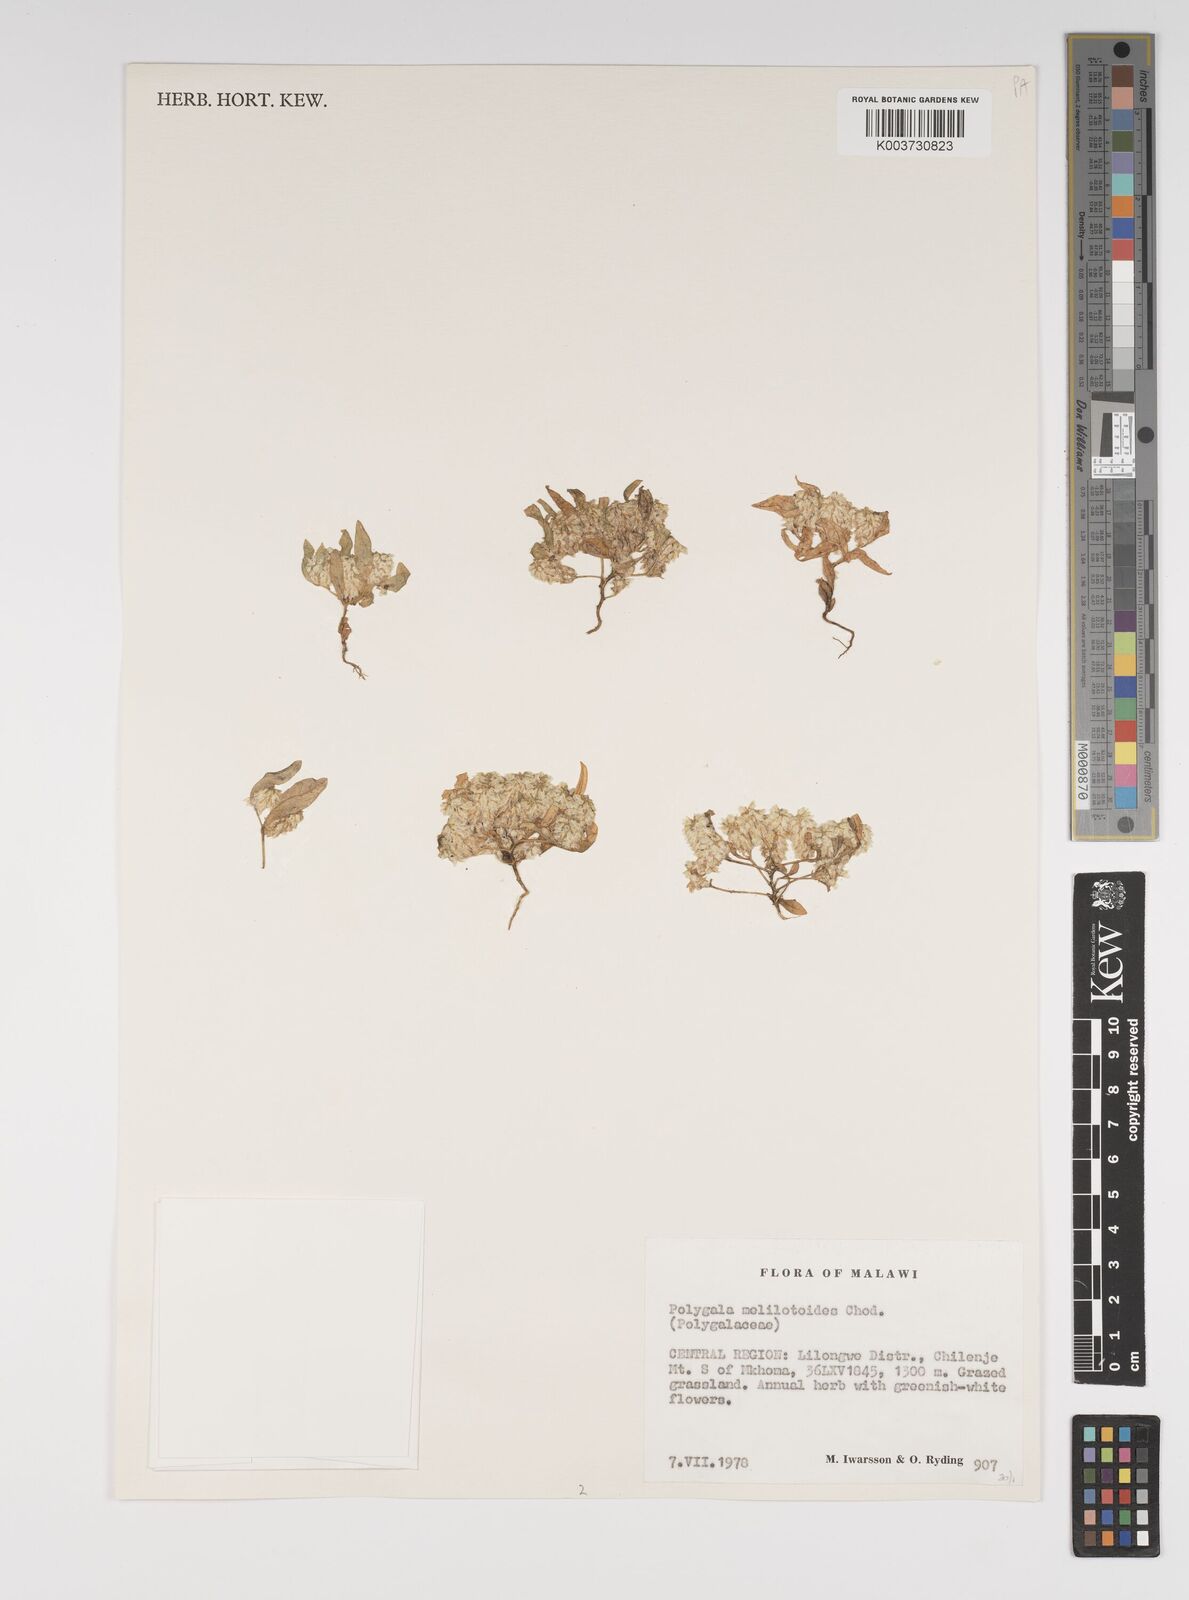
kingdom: Plantae
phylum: Tracheophyta
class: Magnoliopsida
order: Fabales
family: Polygalaceae
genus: Polygala
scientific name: Polygala melilotoides
